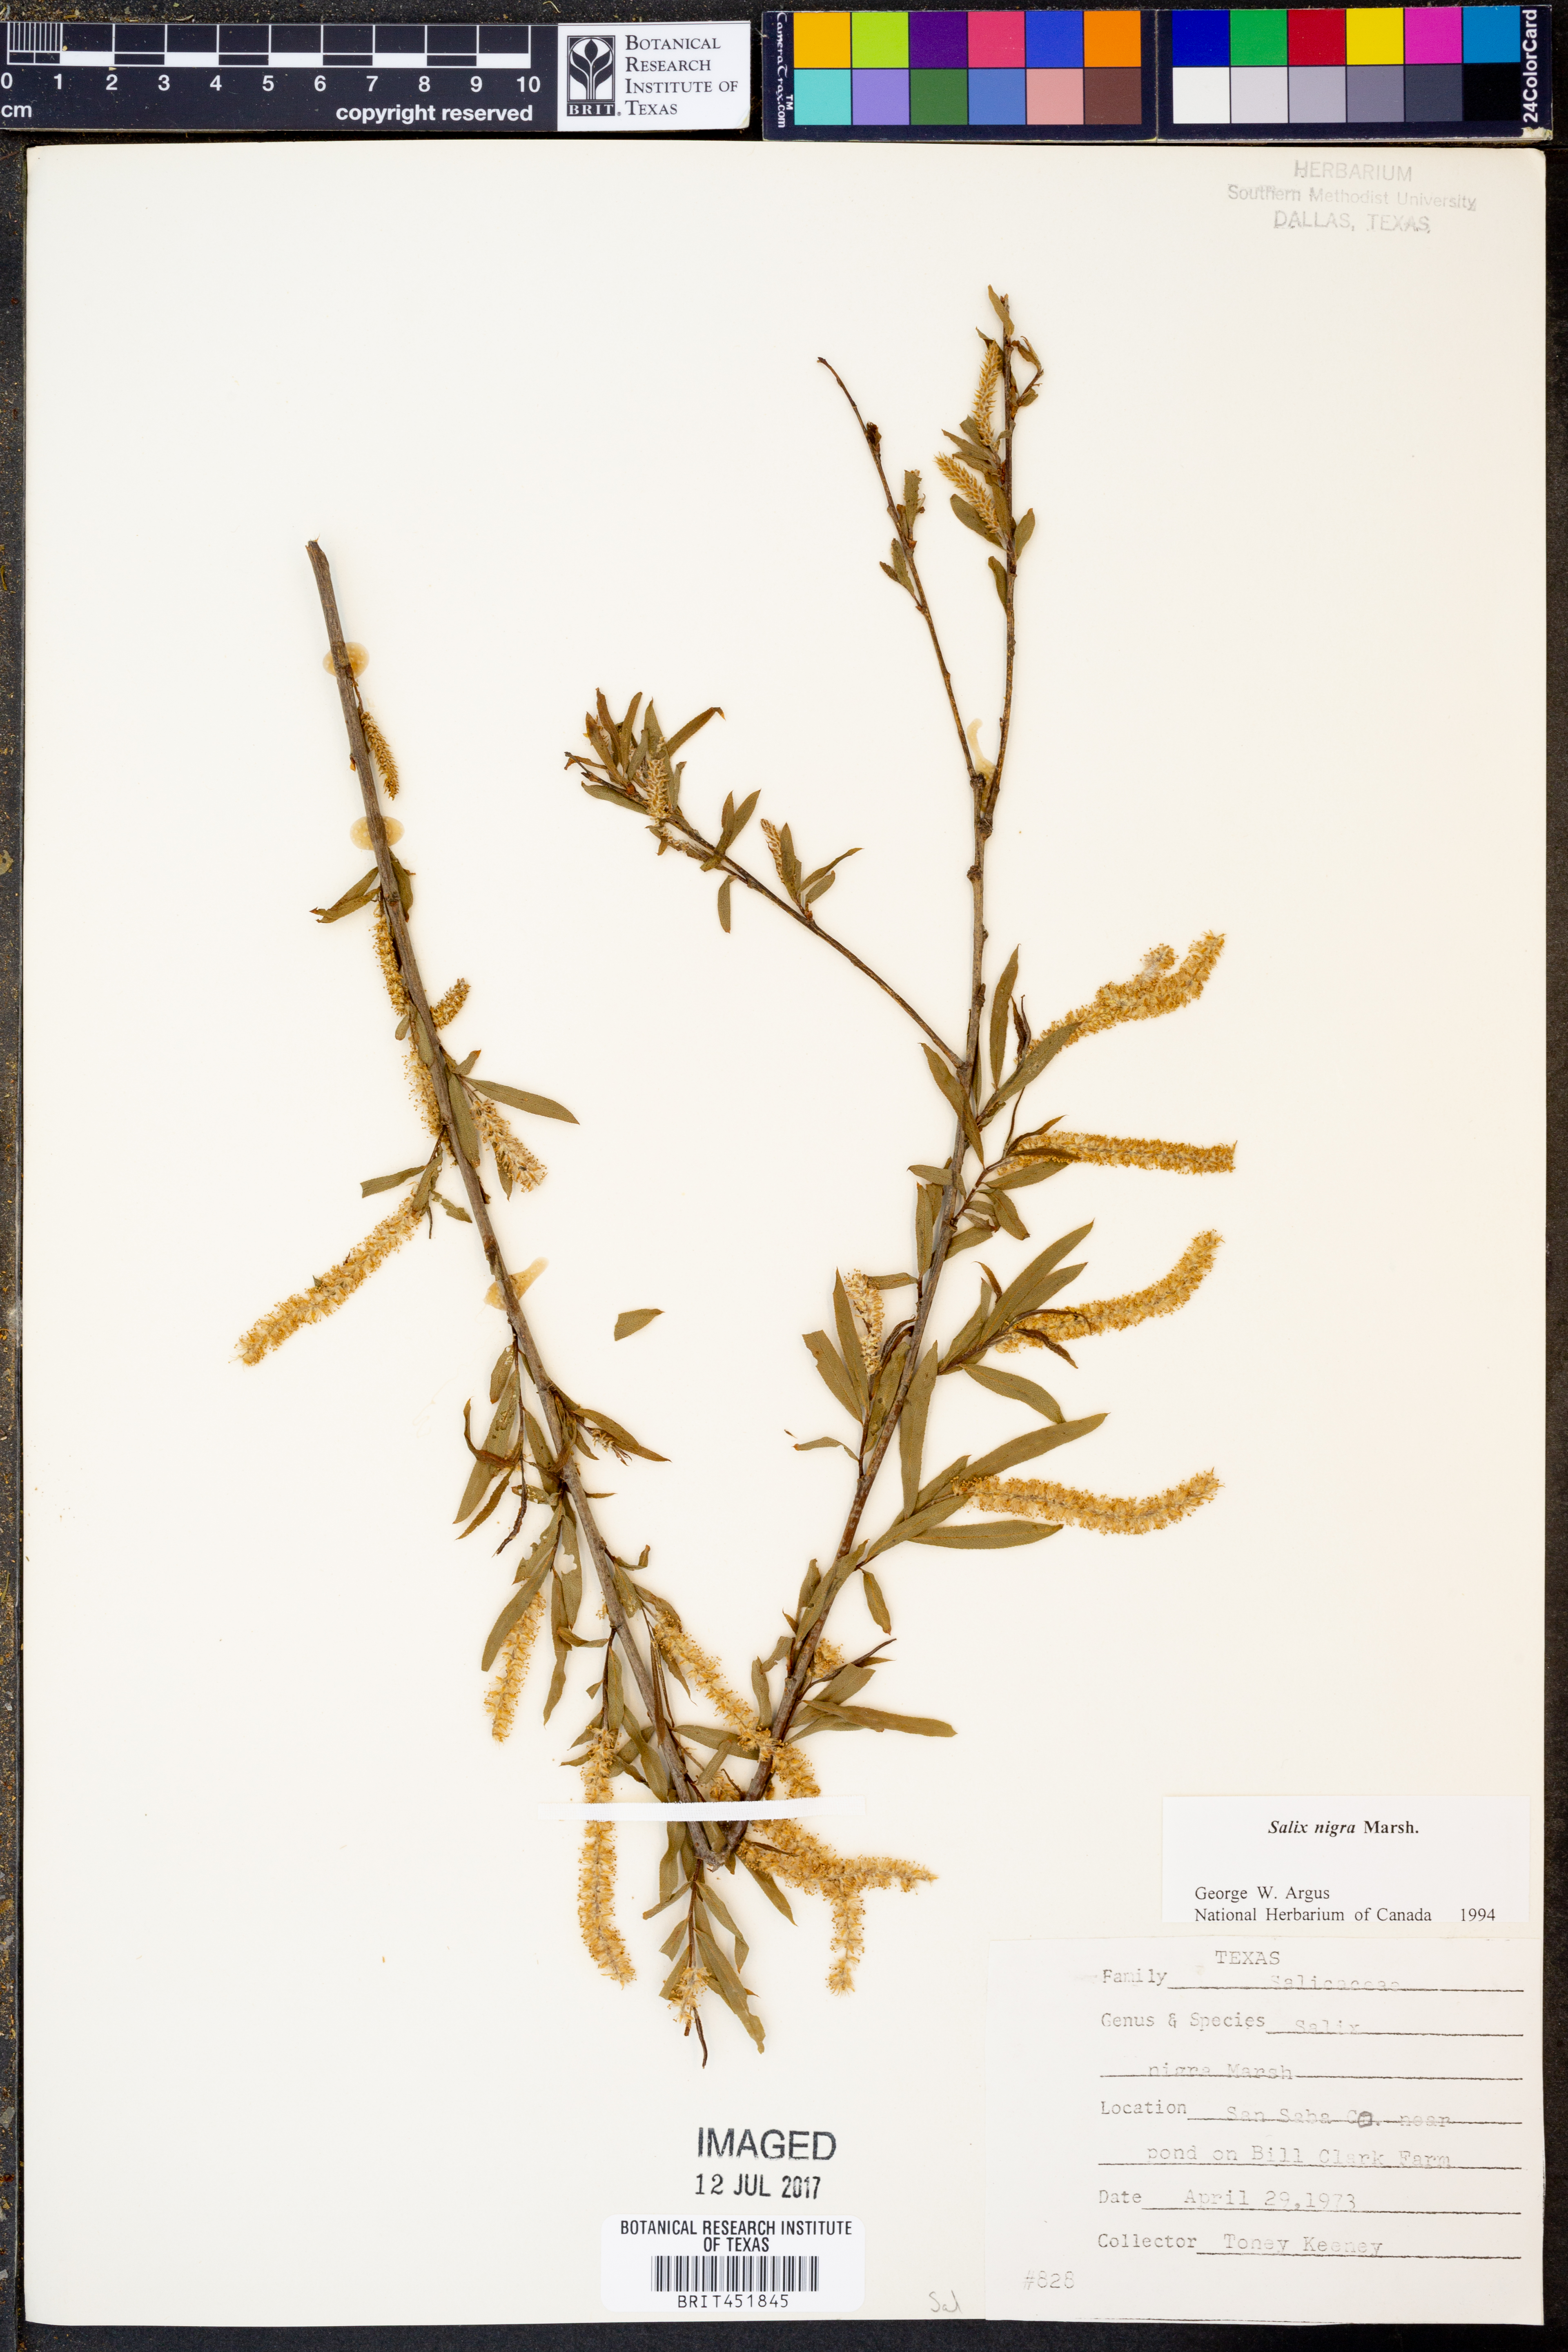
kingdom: Plantae
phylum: Tracheophyta
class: Magnoliopsida
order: Malpighiales
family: Salicaceae
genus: Salix
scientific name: Salix nigra
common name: Black willow
